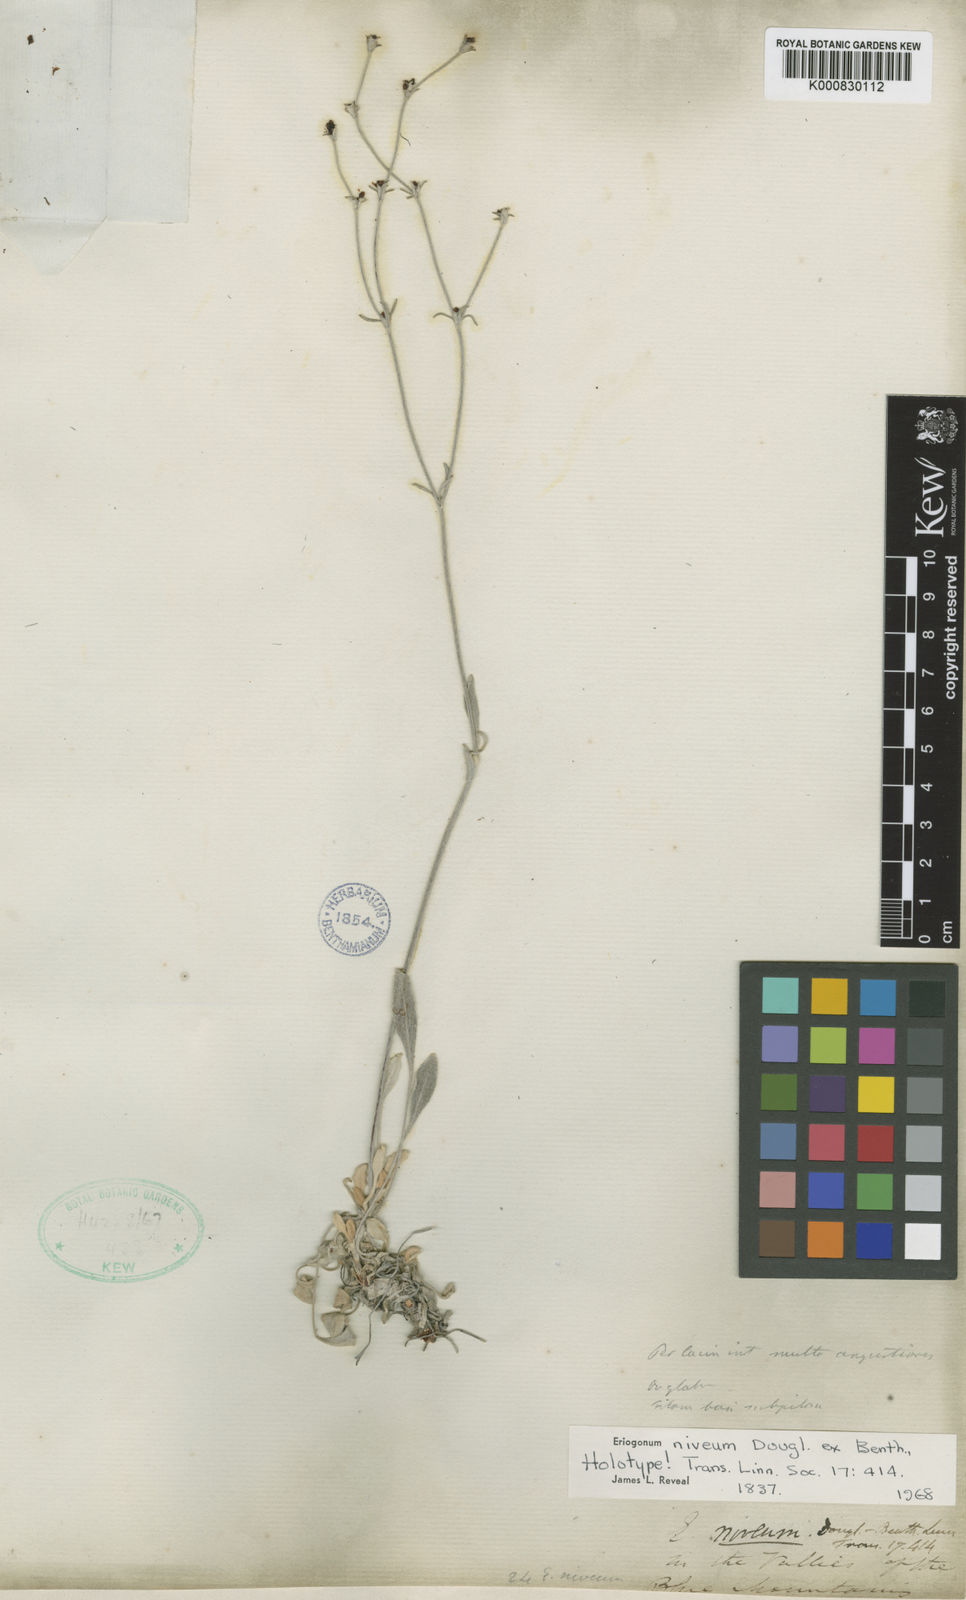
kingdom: Plantae
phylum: Tracheophyta
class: Magnoliopsida
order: Caryophyllales
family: Polygonaceae
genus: Eriogonum
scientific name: Eriogonum niveum
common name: Snow wild buckwheat
